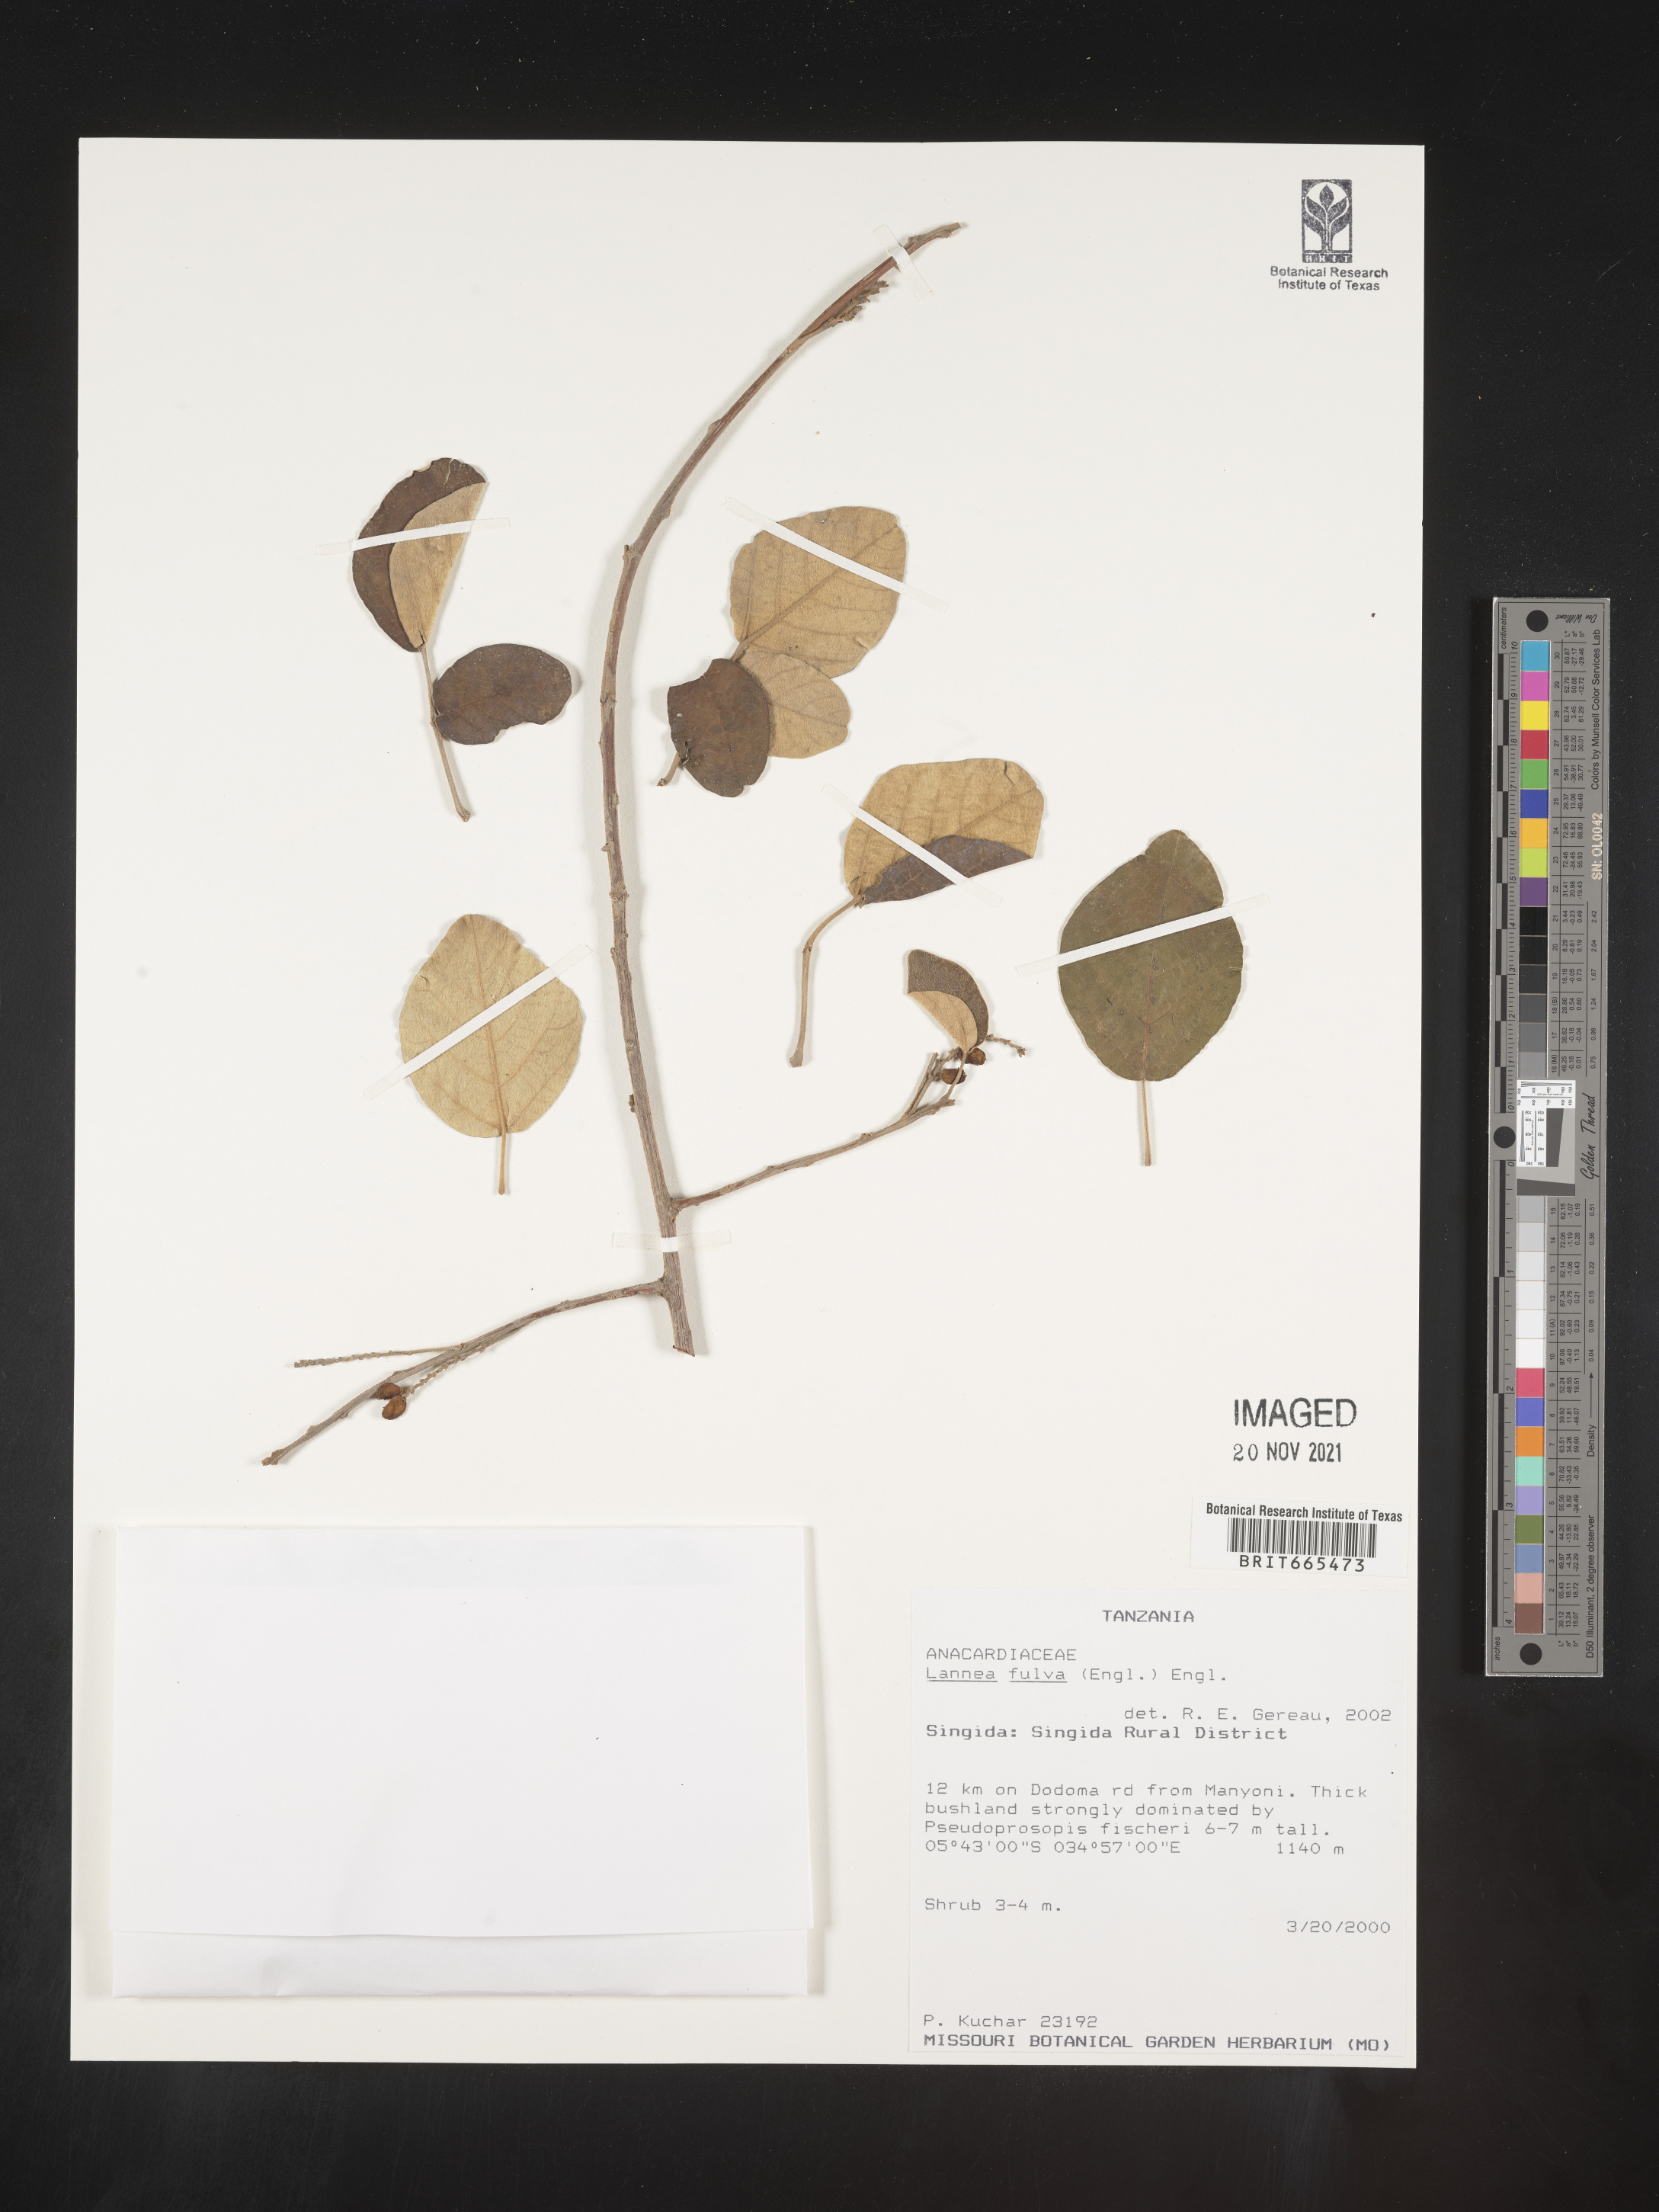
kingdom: Plantae
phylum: Tracheophyta
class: Magnoliopsida
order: Sapindales
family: Anacardiaceae
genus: Lannea
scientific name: Lannea
